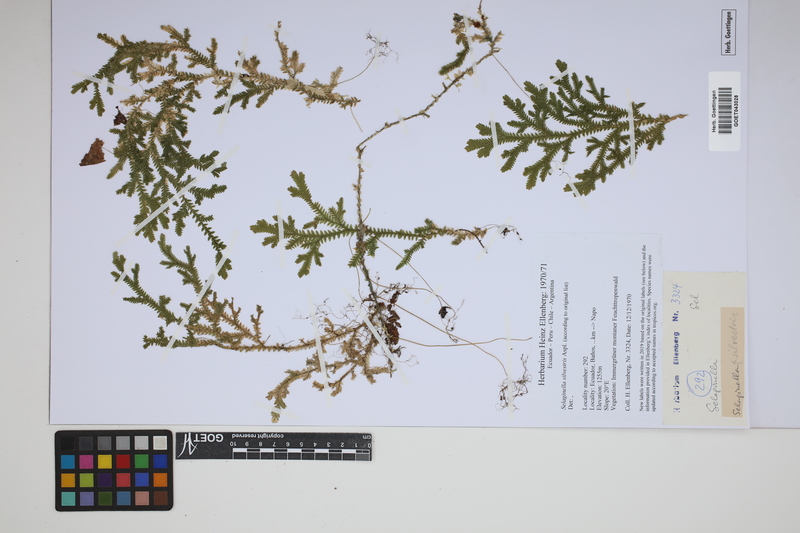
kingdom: Plantae
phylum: Tracheophyta
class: Lycopodiopsida
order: Selaginellales
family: Selaginellaceae
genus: Selaginella
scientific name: Selaginella silvestris
